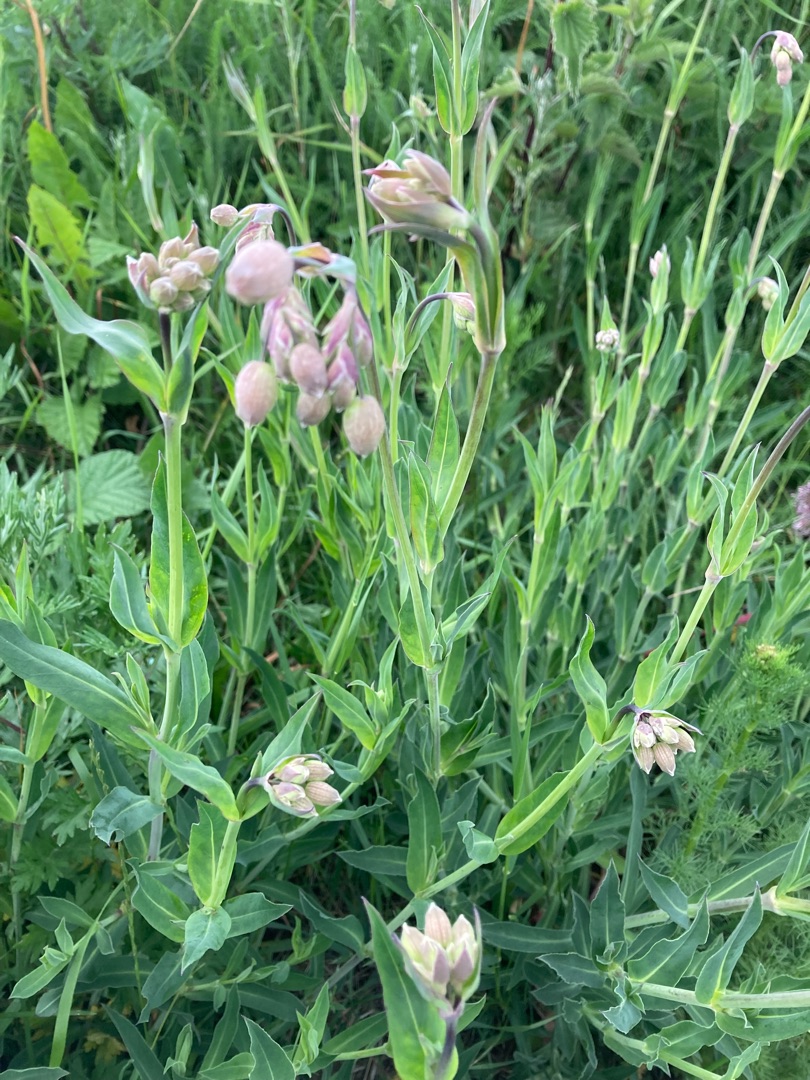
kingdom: Plantae
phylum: Tracheophyta
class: Magnoliopsida
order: Caryophyllales
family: Caryophyllaceae
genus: Silene
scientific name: Silene vulgaris
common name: Blæresmælde
